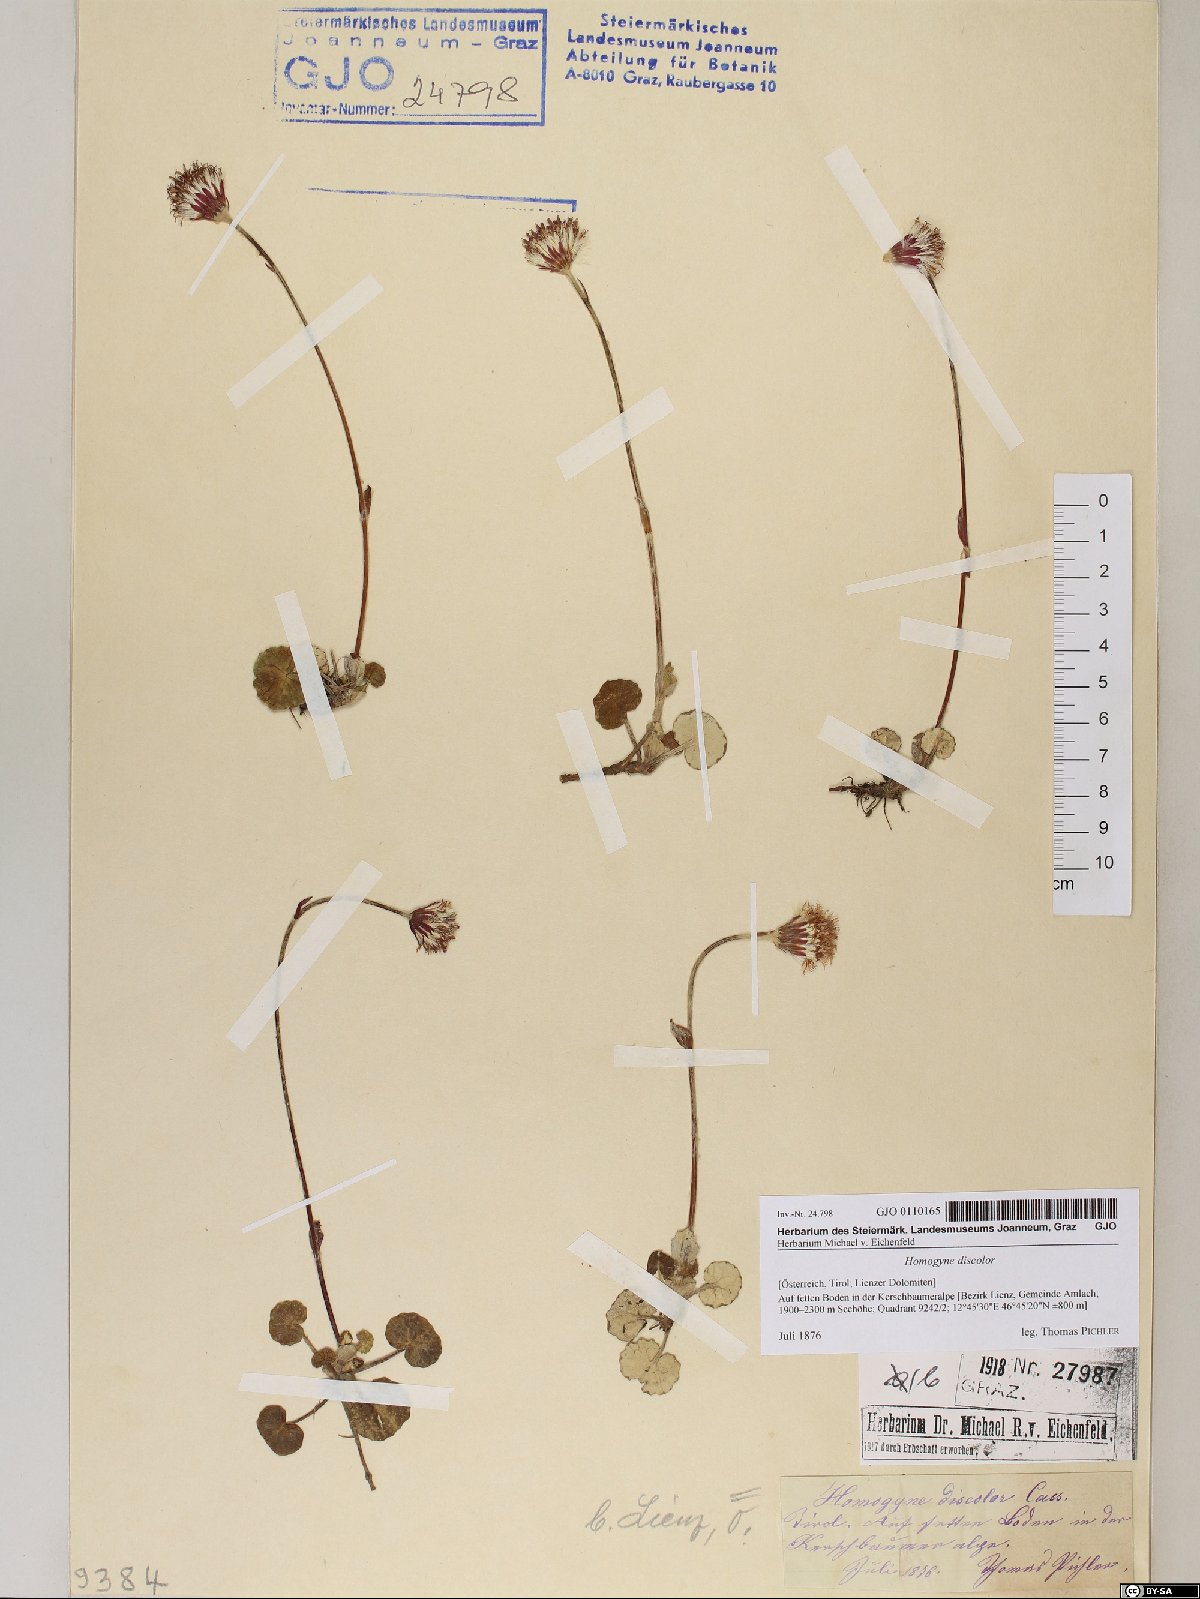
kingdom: Plantae
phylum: Tracheophyta
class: Magnoliopsida
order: Asterales
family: Asteraceae
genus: Homogyne
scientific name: Homogyne discolor
